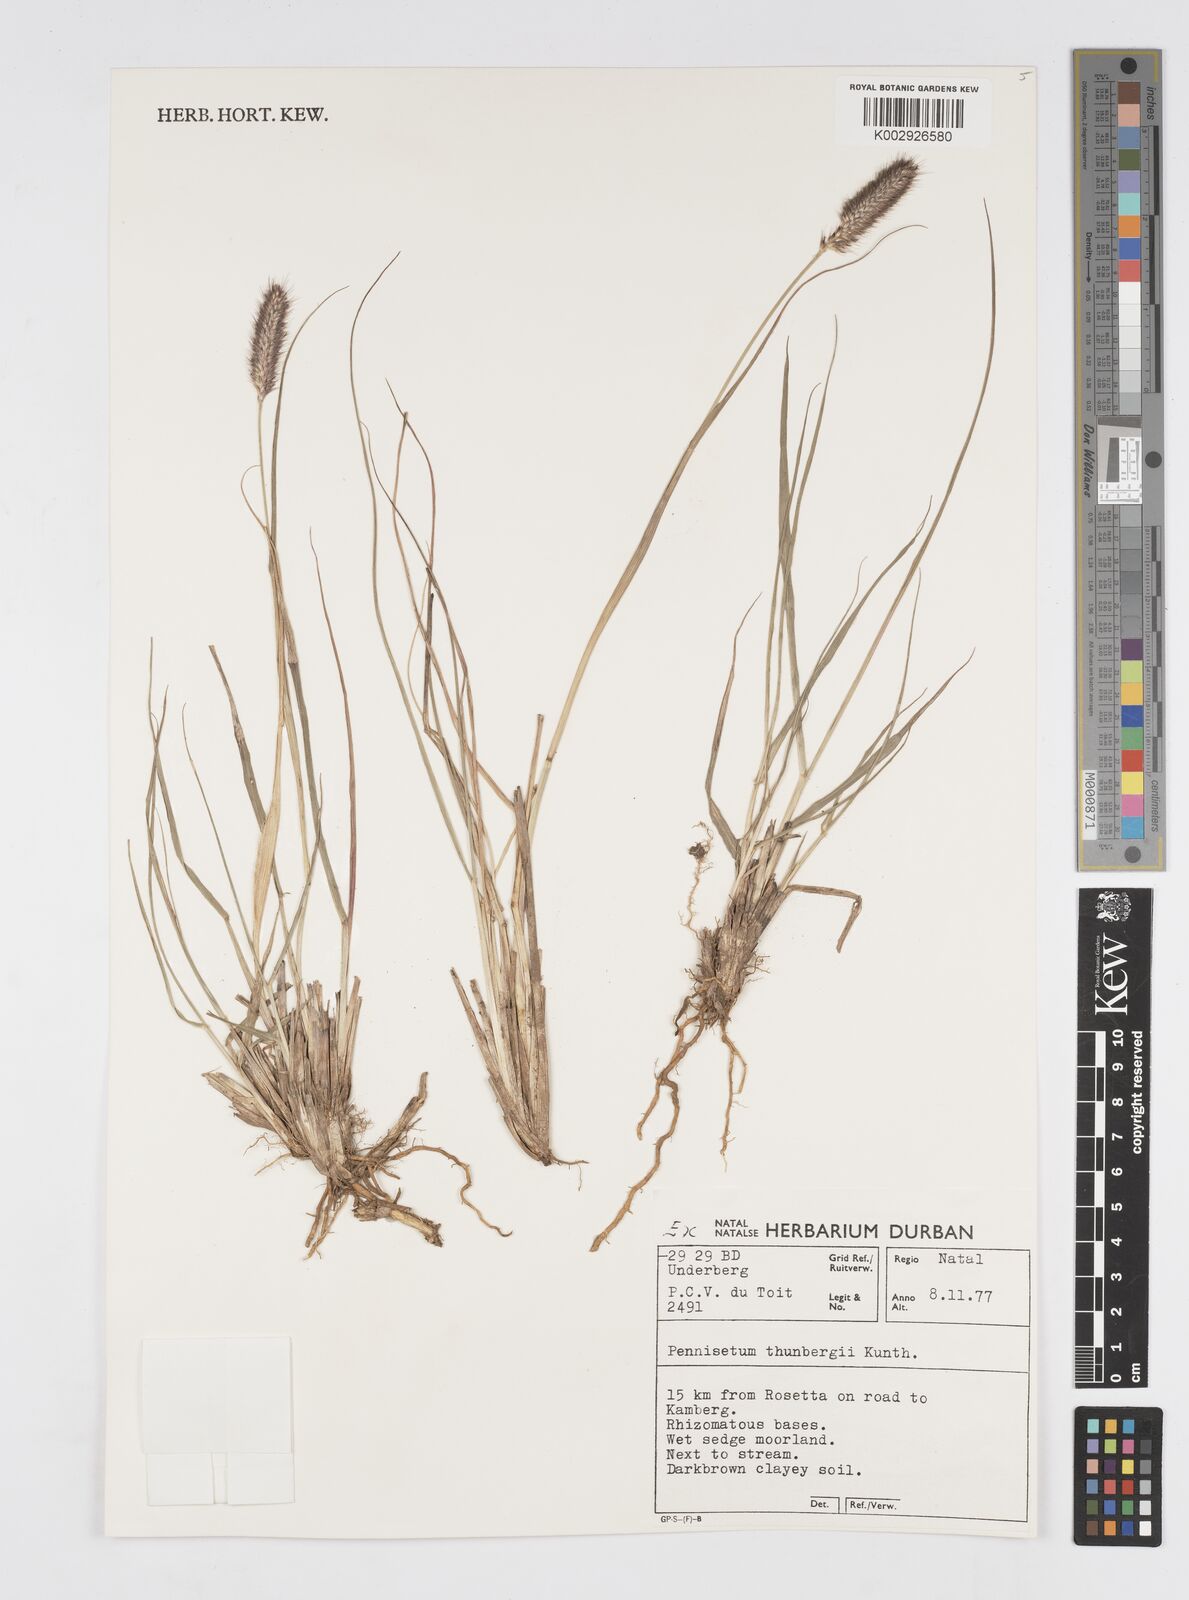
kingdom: Plantae
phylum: Tracheophyta
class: Liliopsida
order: Poales
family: Poaceae
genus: Cenchrus
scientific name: Cenchrus geniculatus
